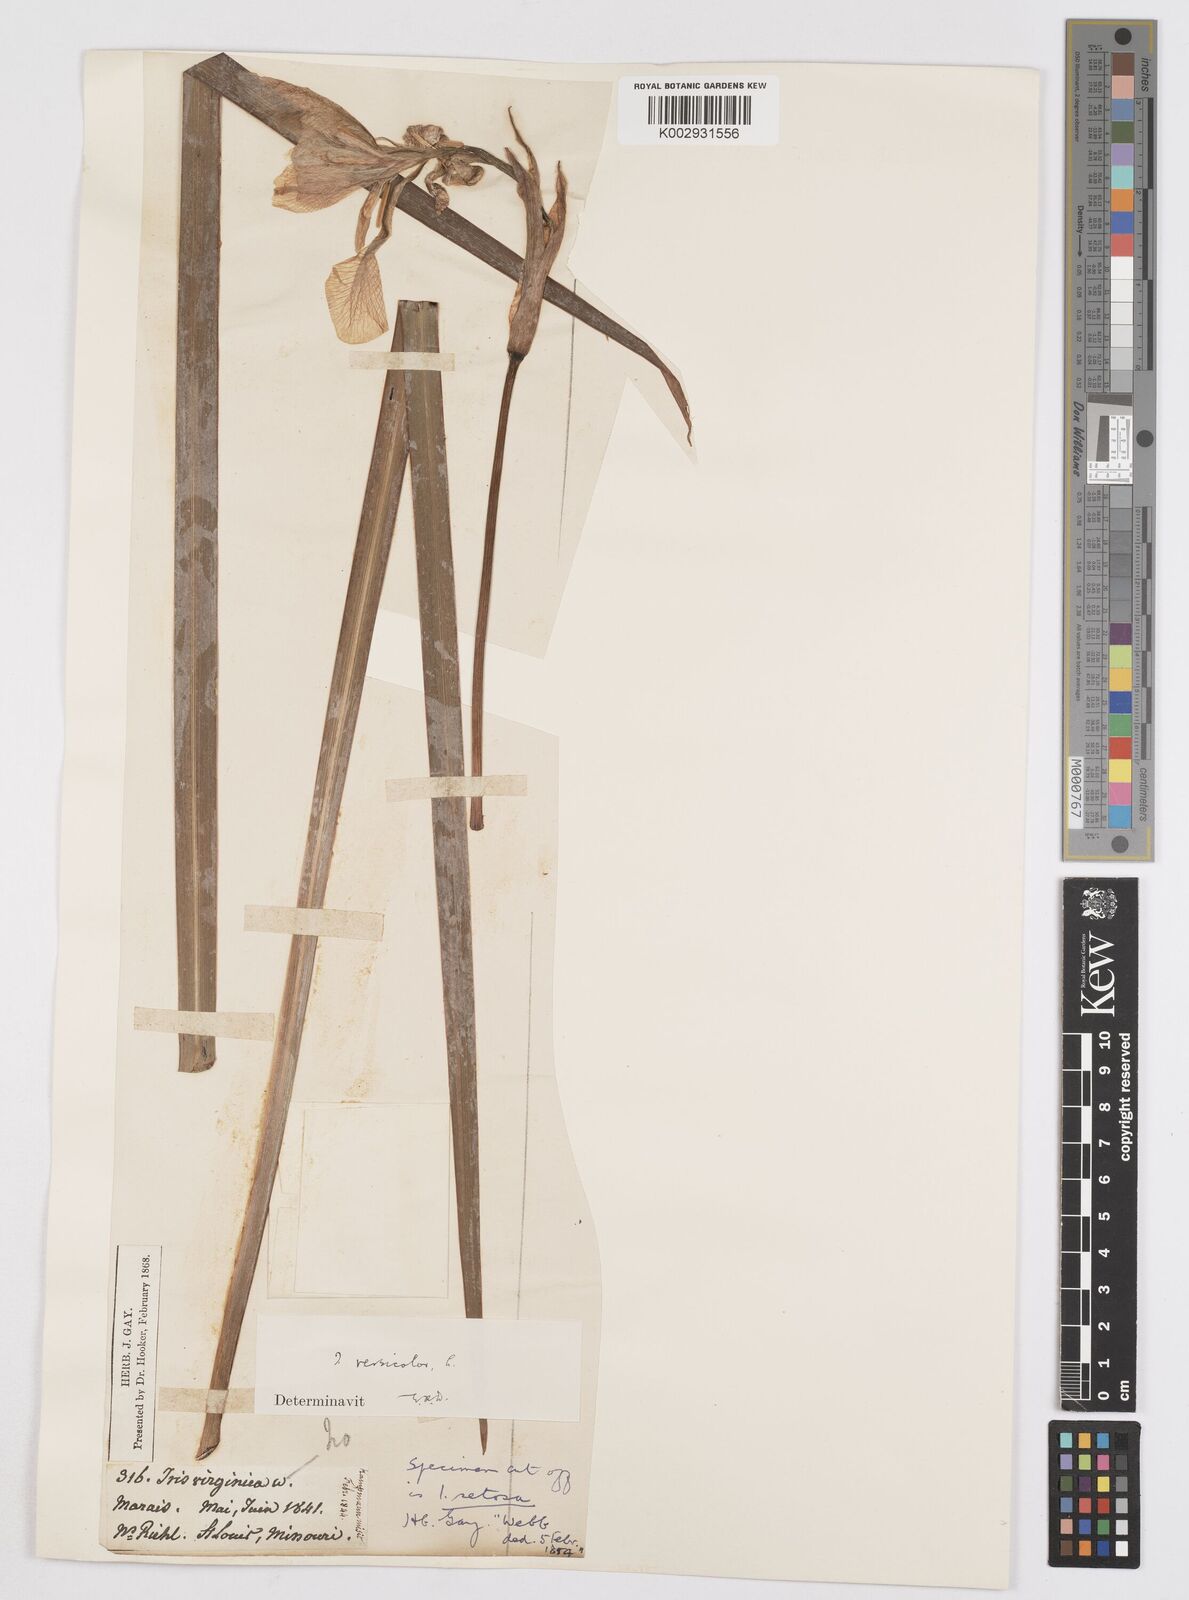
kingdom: Plantae
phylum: Tracheophyta
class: Liliopsida
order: Asparagales
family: Iridaceae
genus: Iris
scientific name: Iris virginica
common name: Southern blue flag
